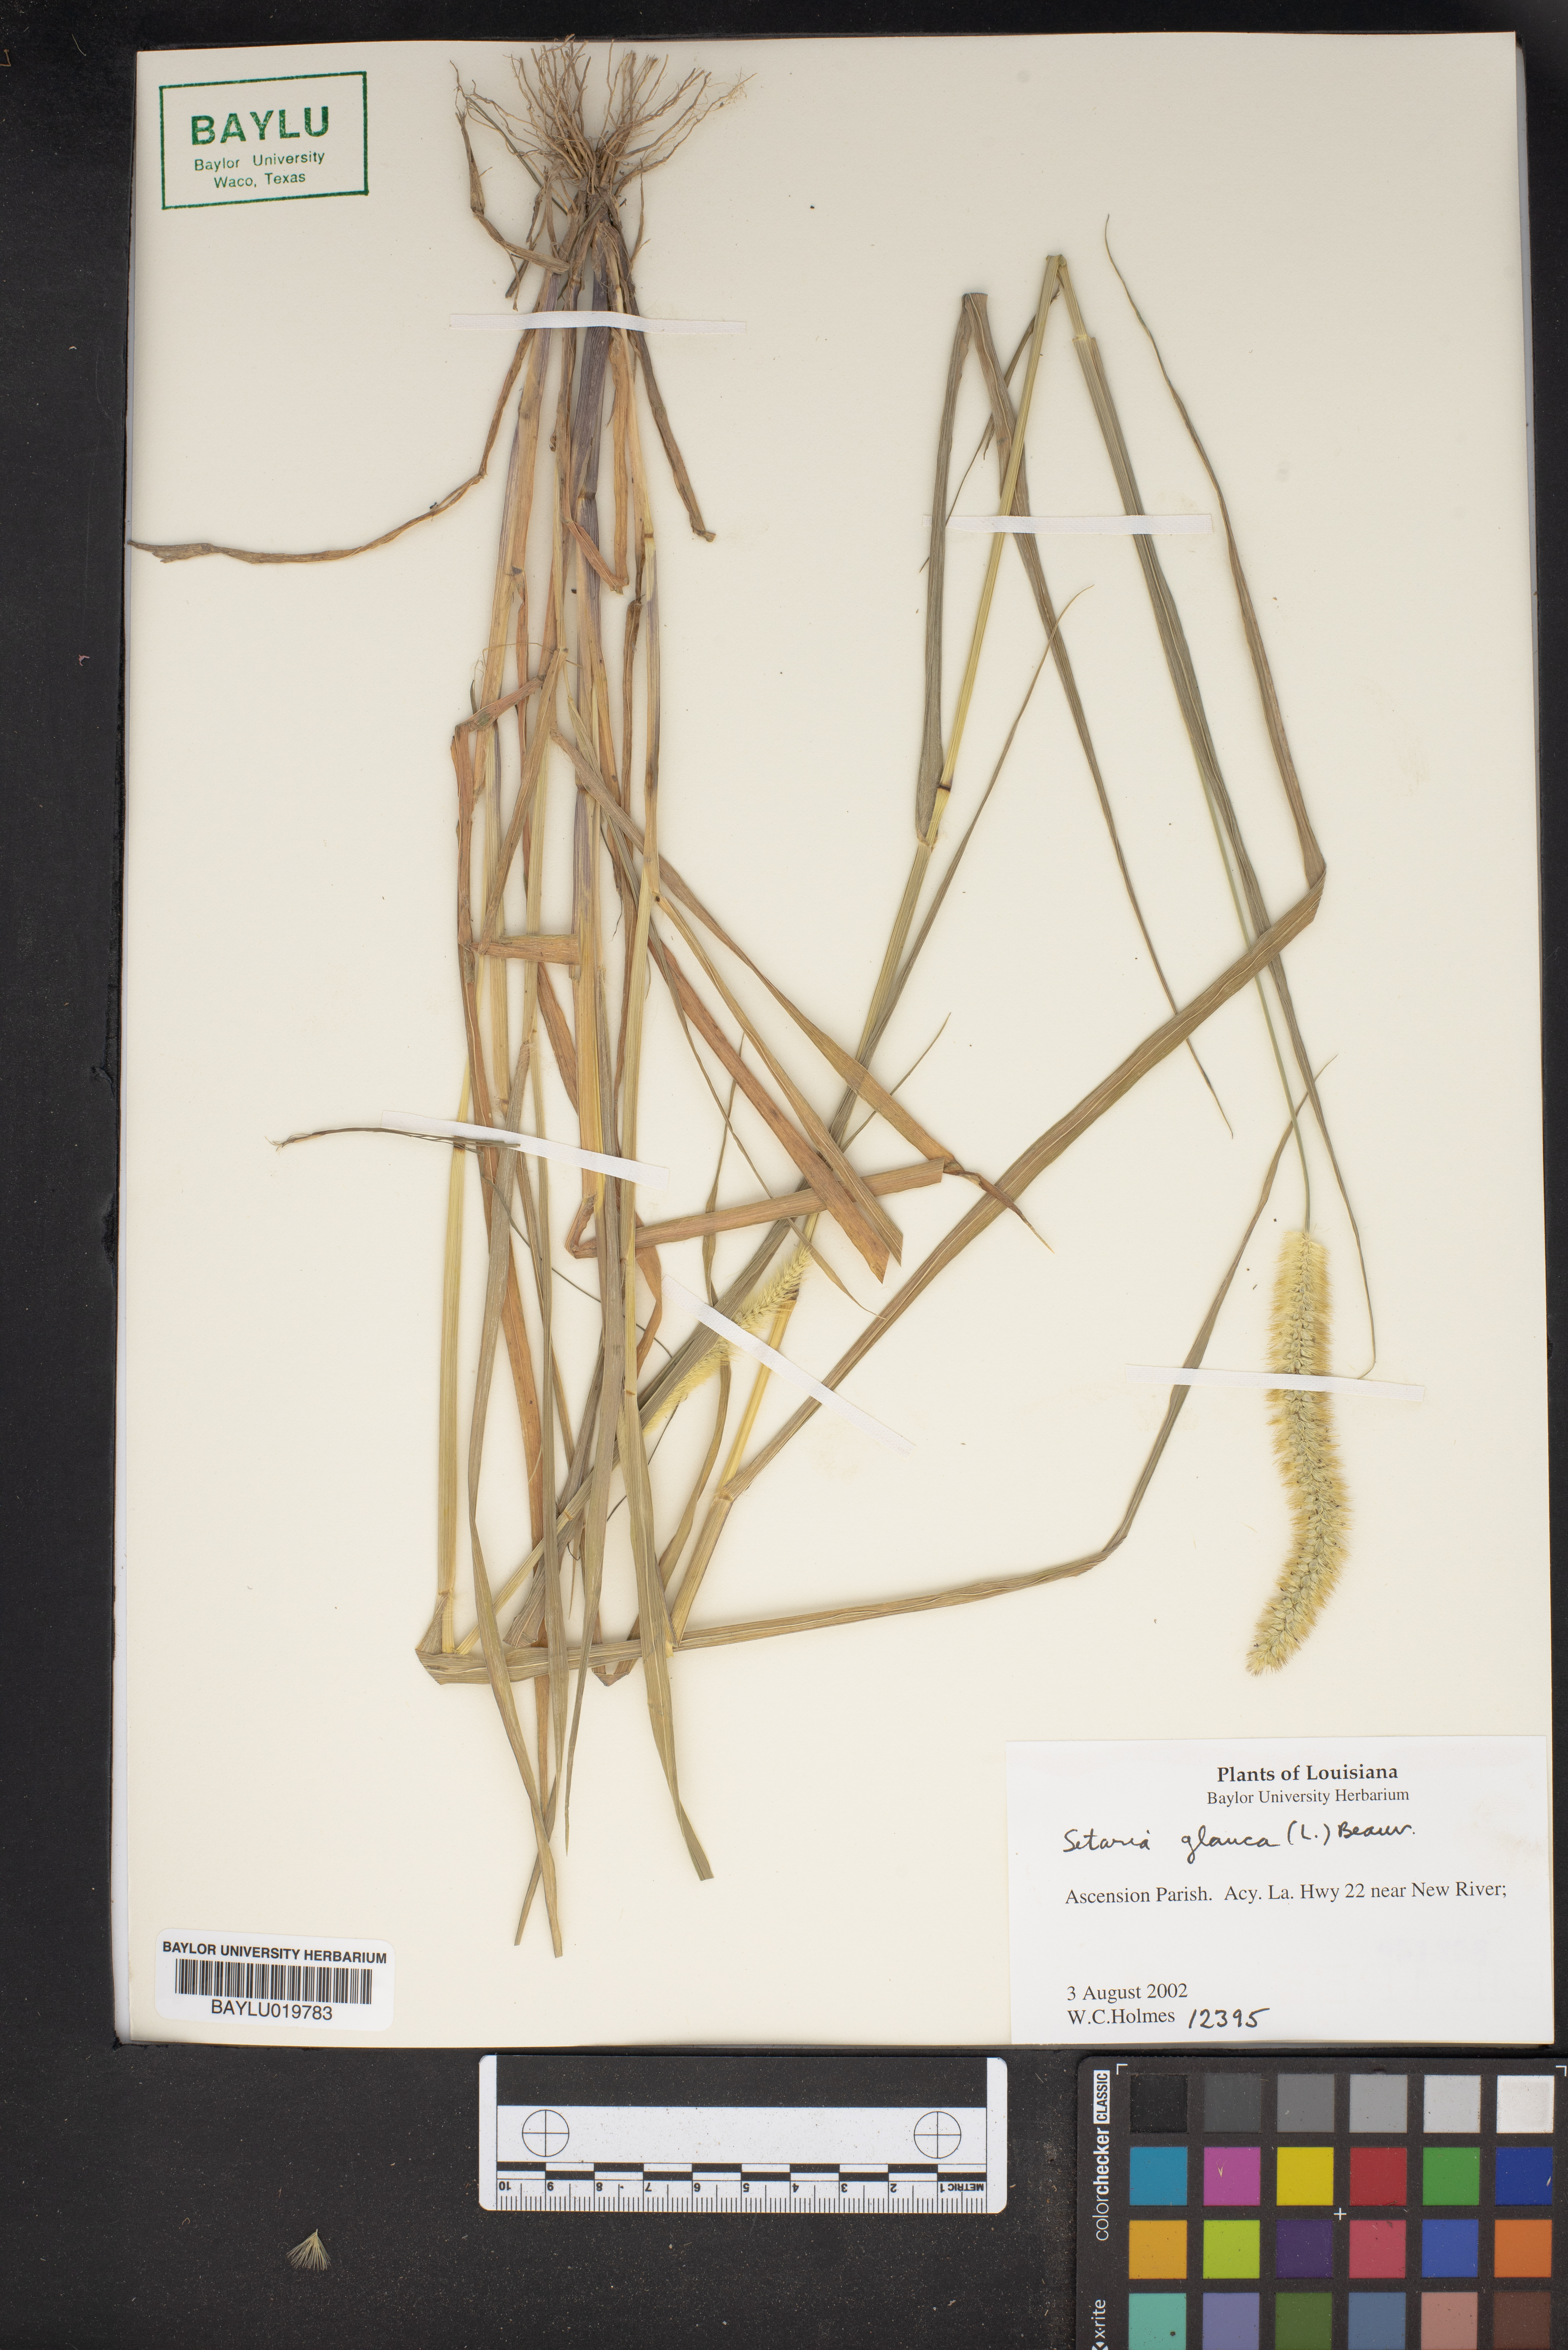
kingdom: Plantae
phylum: Tracheophyta
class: Liliopsida
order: Poales
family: Poaceae
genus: Cenchrus
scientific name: Cenchrus americanus
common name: Pearl millet
